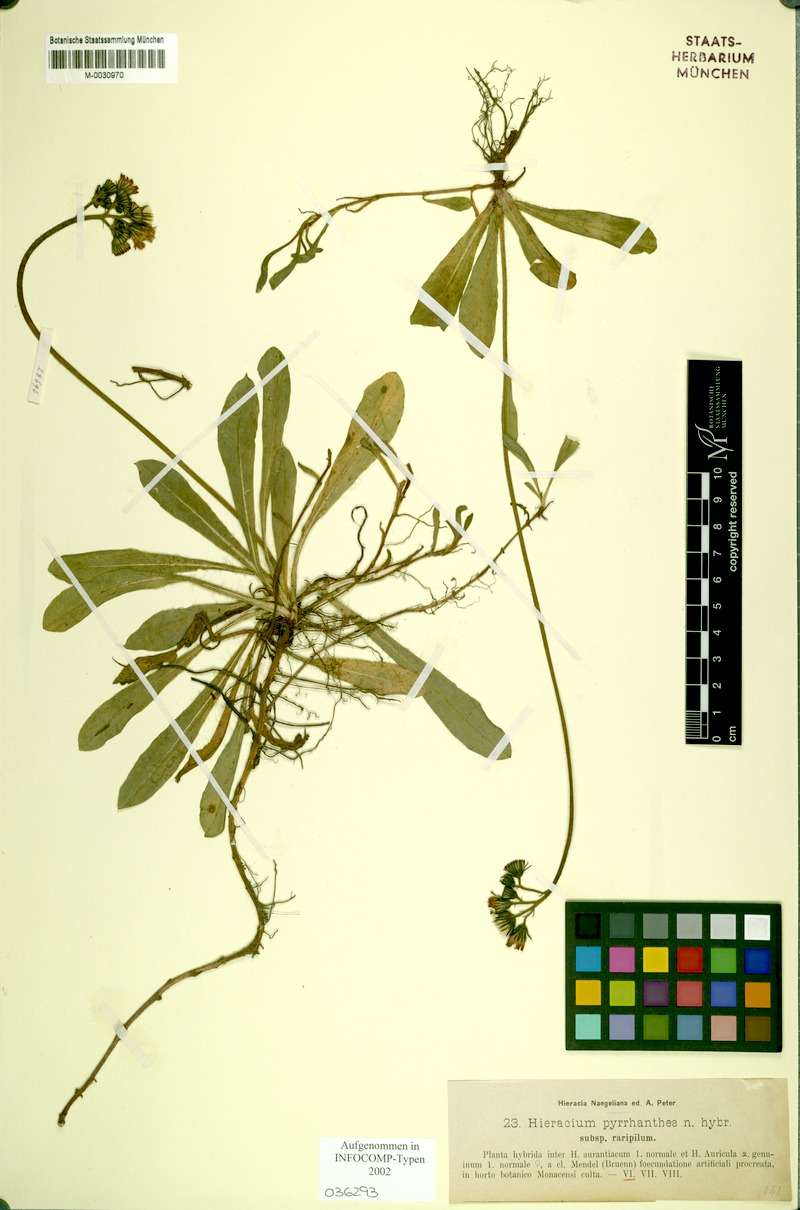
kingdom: Plantae
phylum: Tracheophyta
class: Magnoliopsida
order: Asterales
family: Asteraceae
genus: Pilosella
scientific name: Pilosella blyttiana
